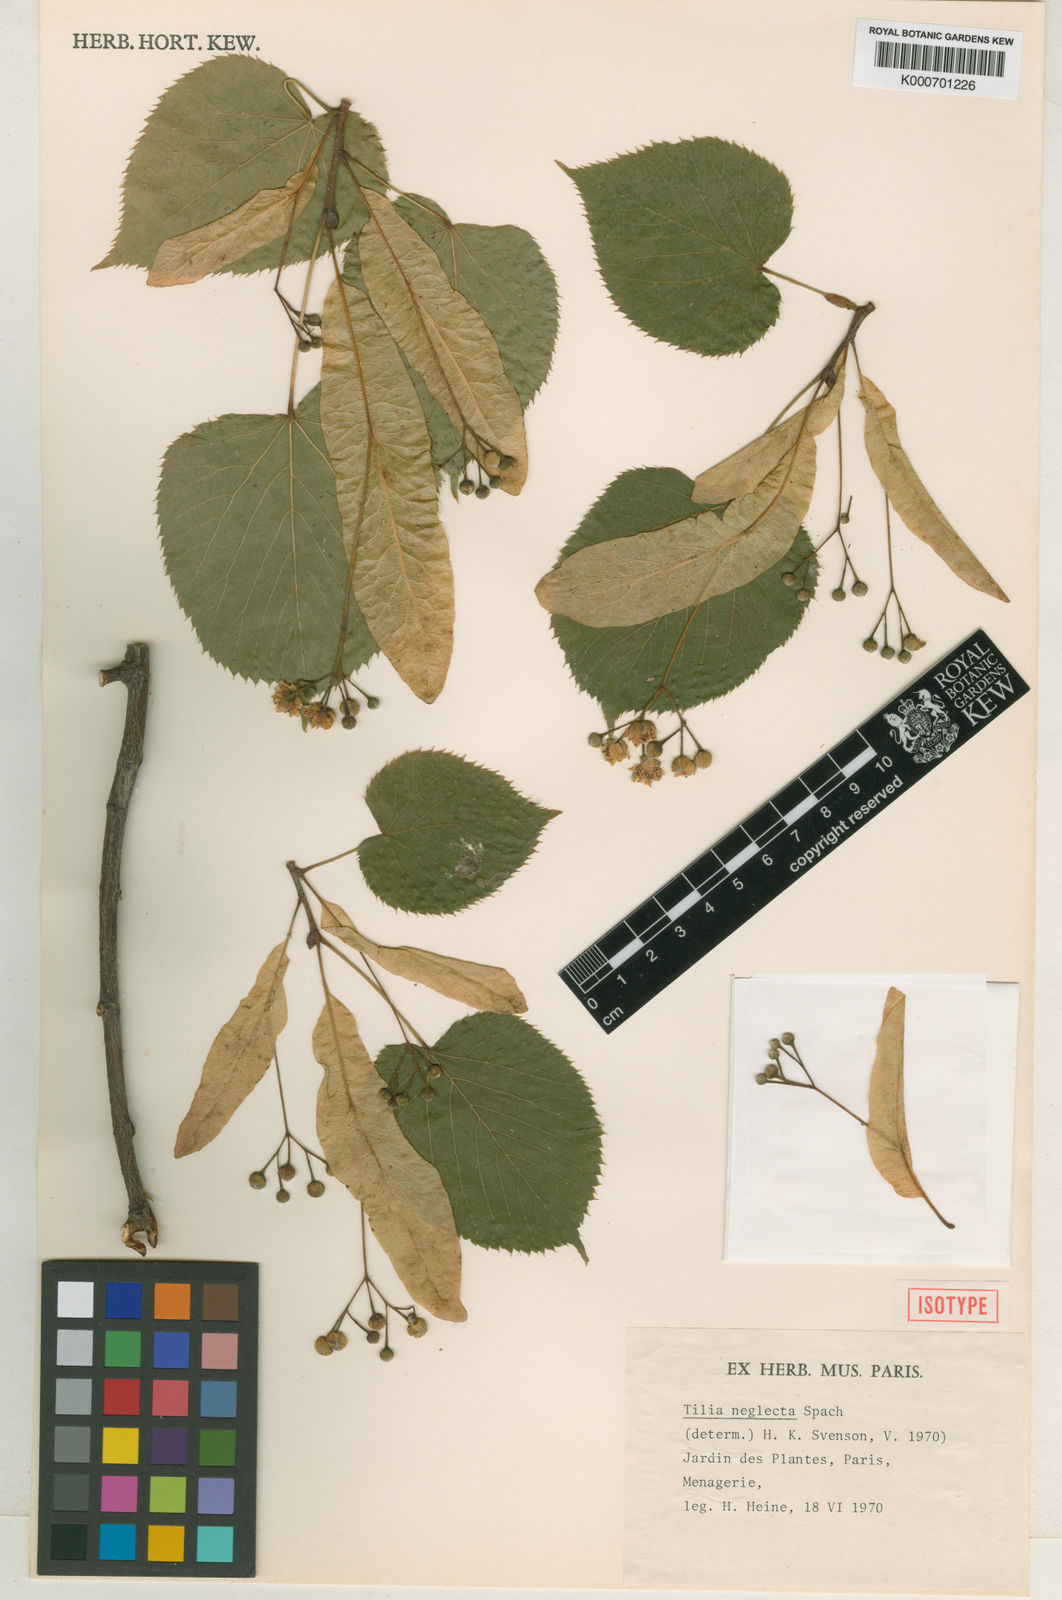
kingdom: Plantae
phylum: Tracheophyta
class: Magnoliopsida
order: Malvales
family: Malvaceae
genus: Tilia
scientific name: Tilia americana
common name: Basswood
